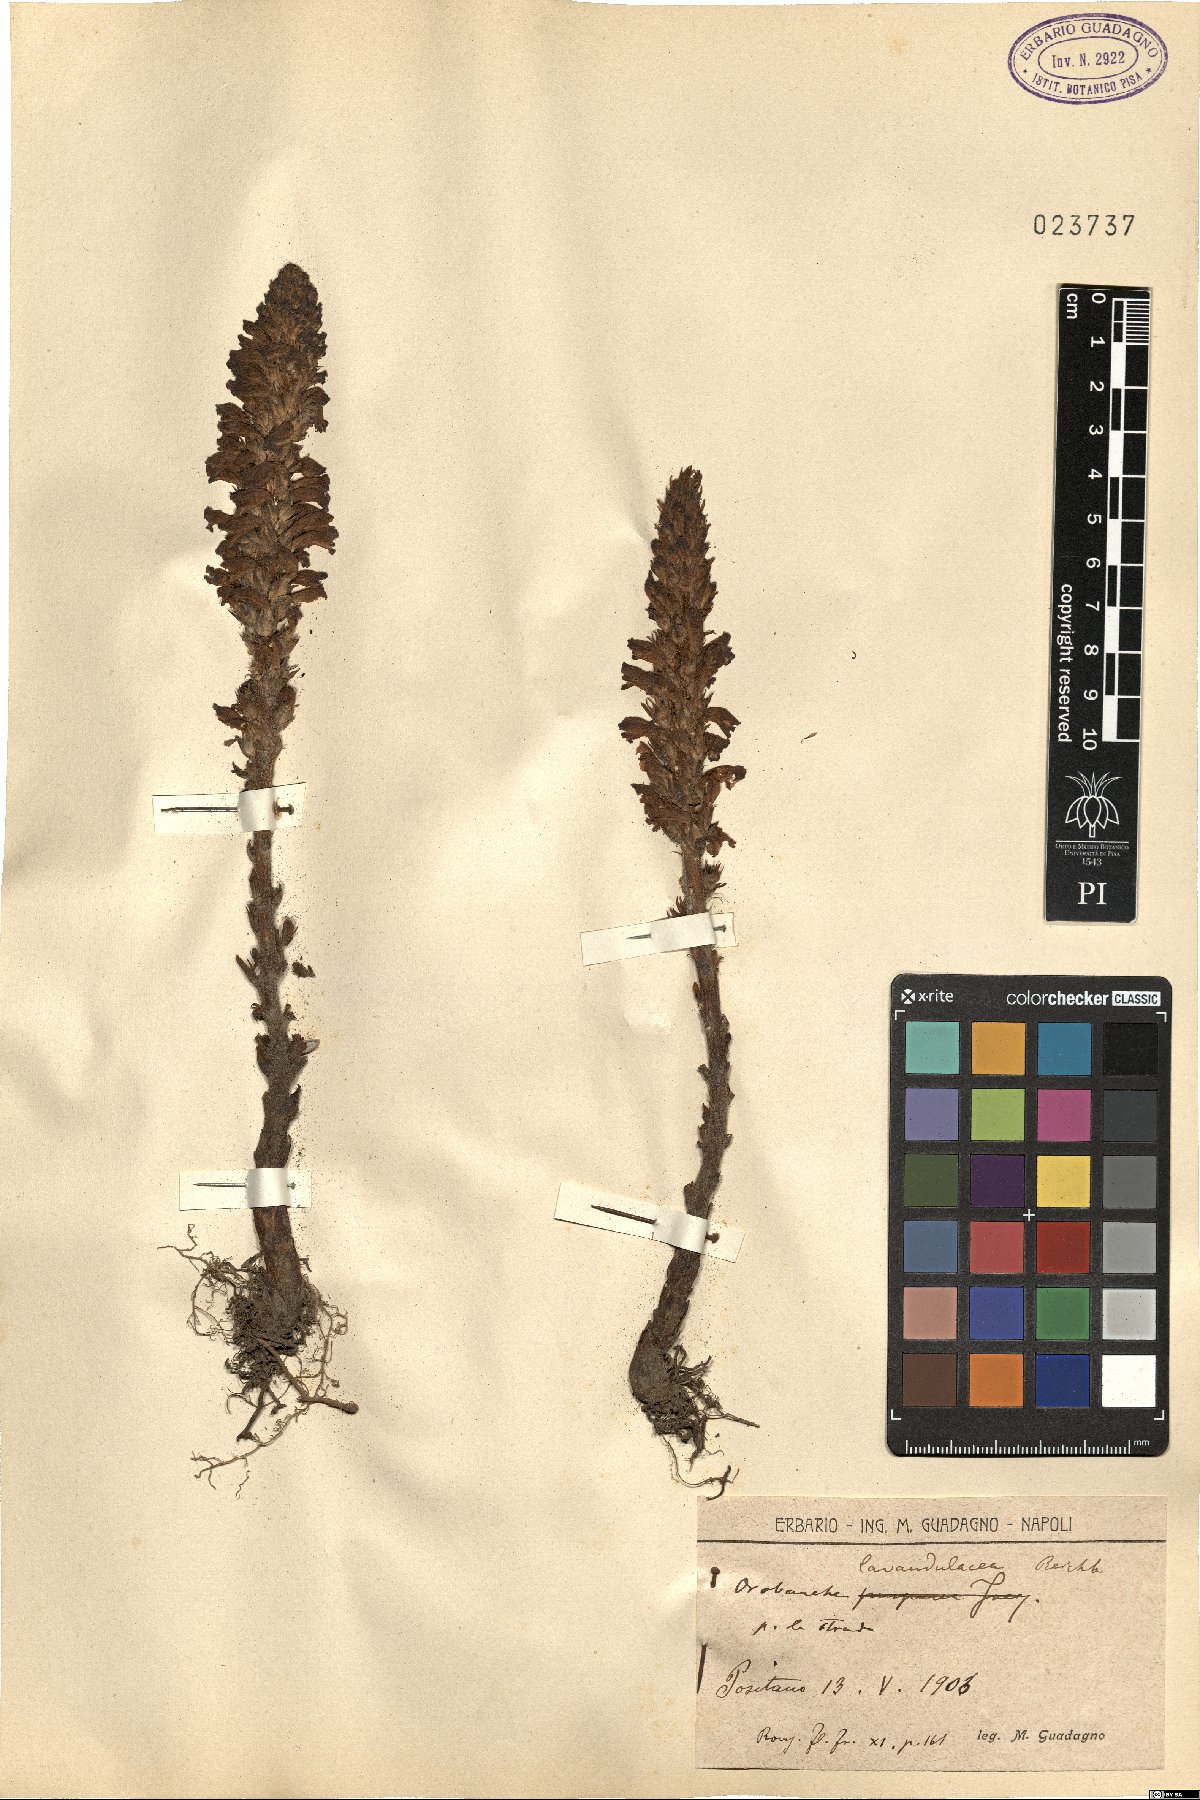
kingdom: Plantae
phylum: Tracheophyta
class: Magnoliopsida
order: Lamiales
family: Orobanchaceae
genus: Phelipanche
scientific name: Phelipanche lavandulacea
